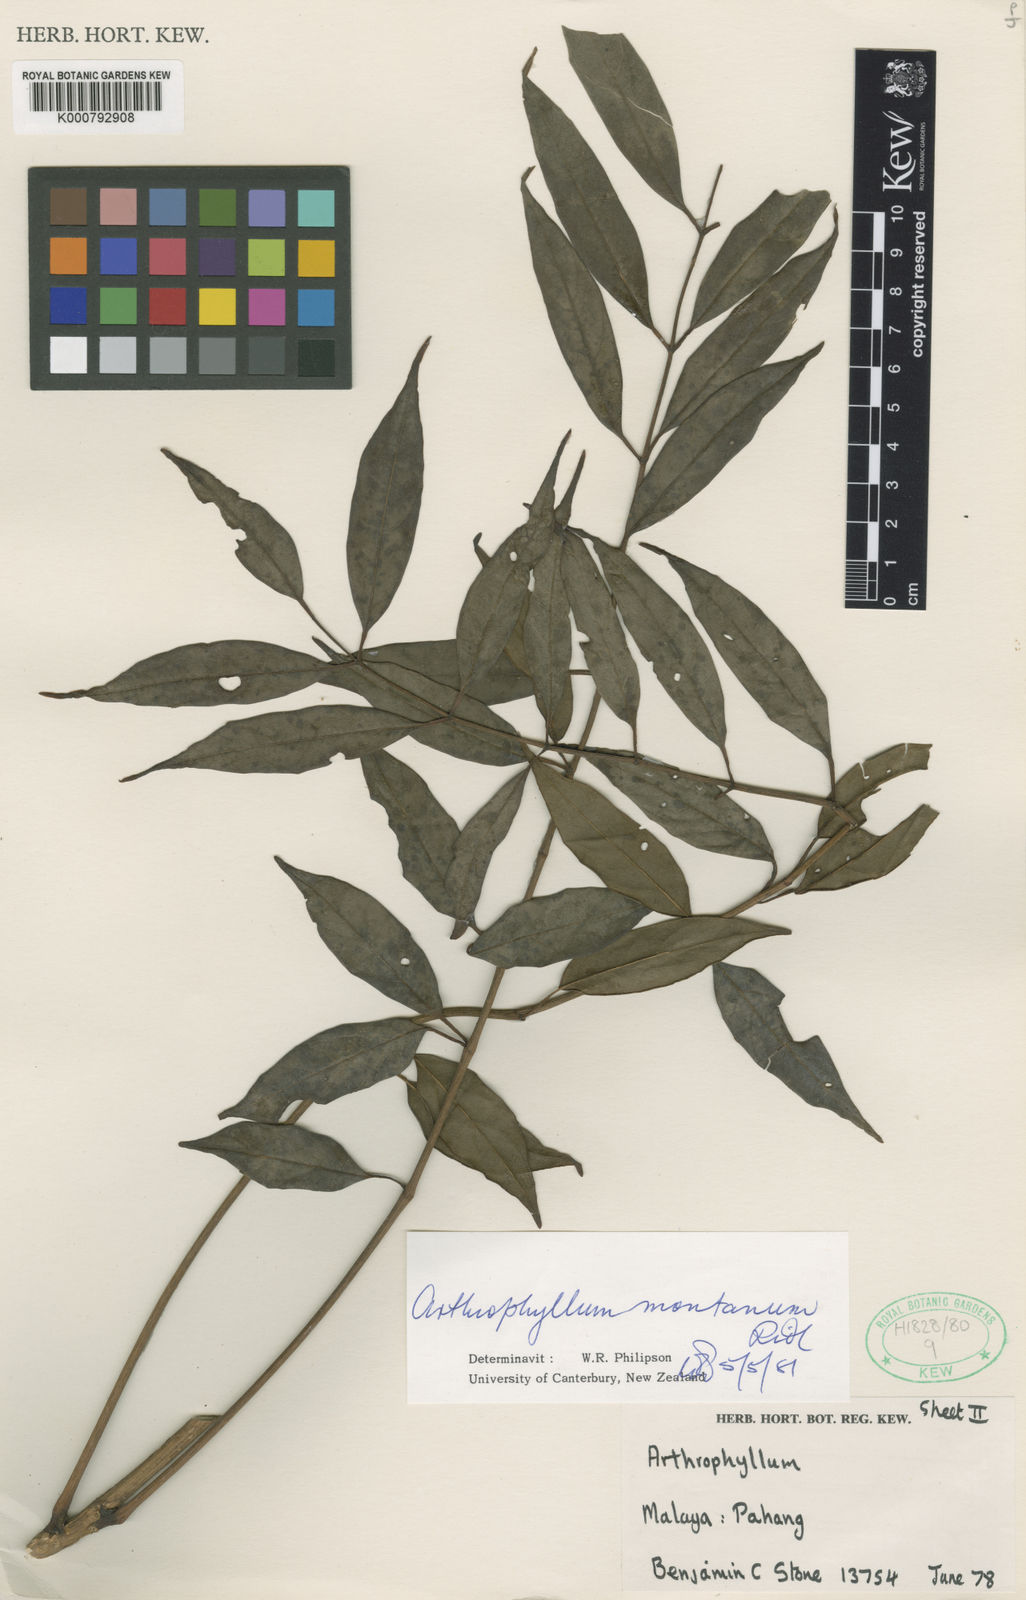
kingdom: Plantae
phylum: Tracheophyta
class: Magnoliopsida
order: Apiales
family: Araliaceae
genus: Polyscias
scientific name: Polyscias stonei
